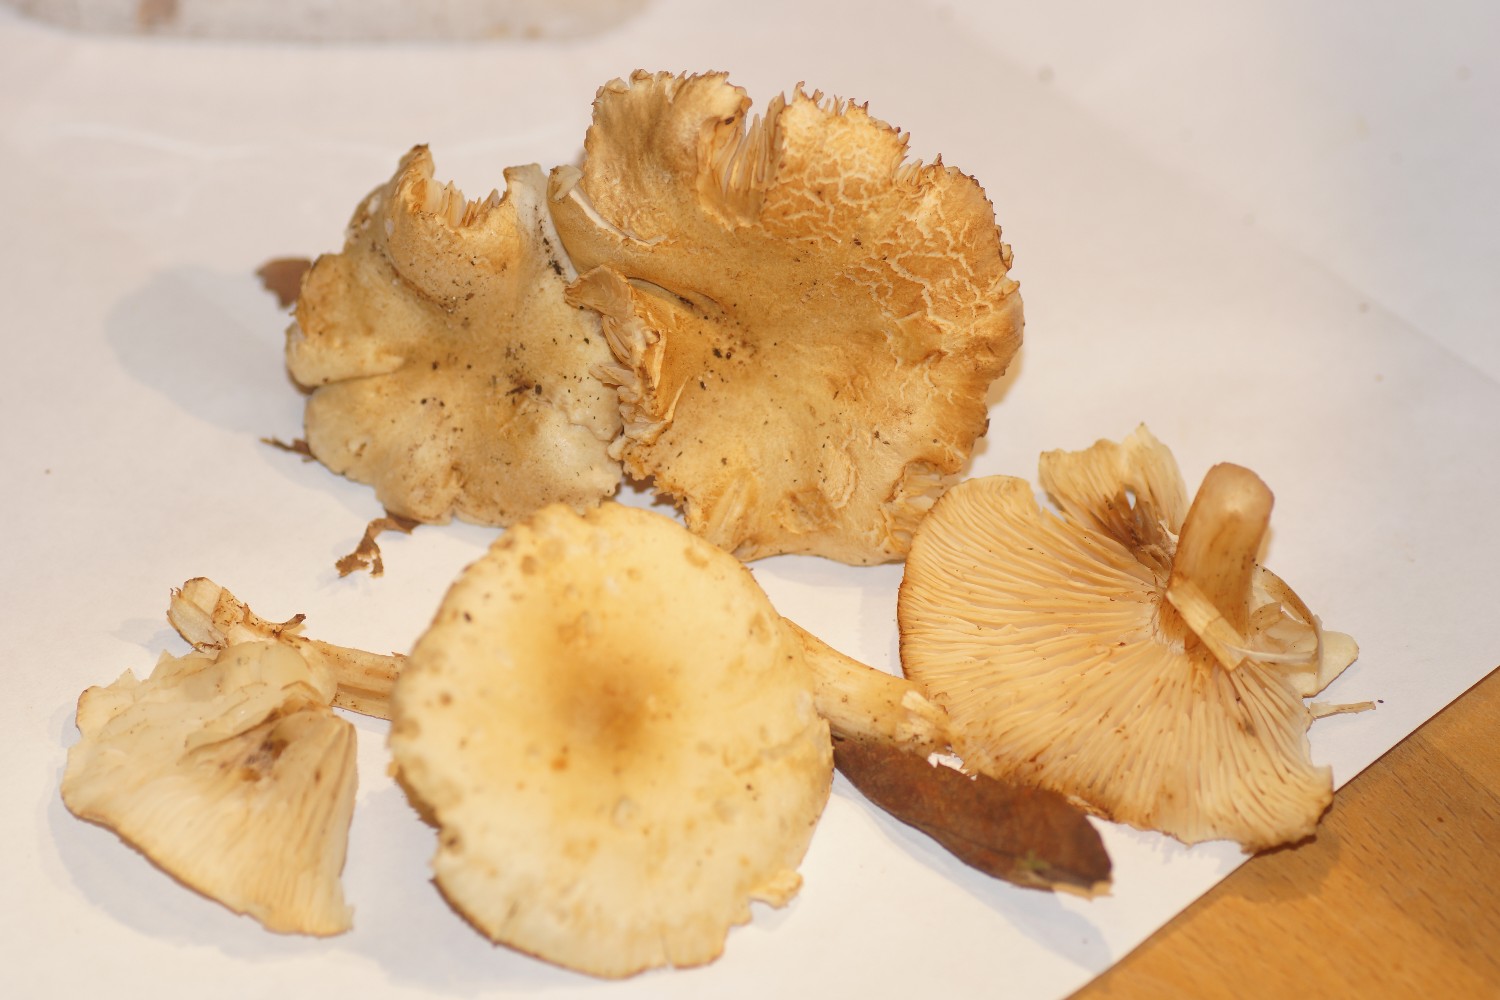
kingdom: Fungi
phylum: Basidiomycota
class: Agaricomycetes
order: Agaricales
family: Tricholomataceae
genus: Tricholoma
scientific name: Tricholoma lascivum
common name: stinkende ridderhat
